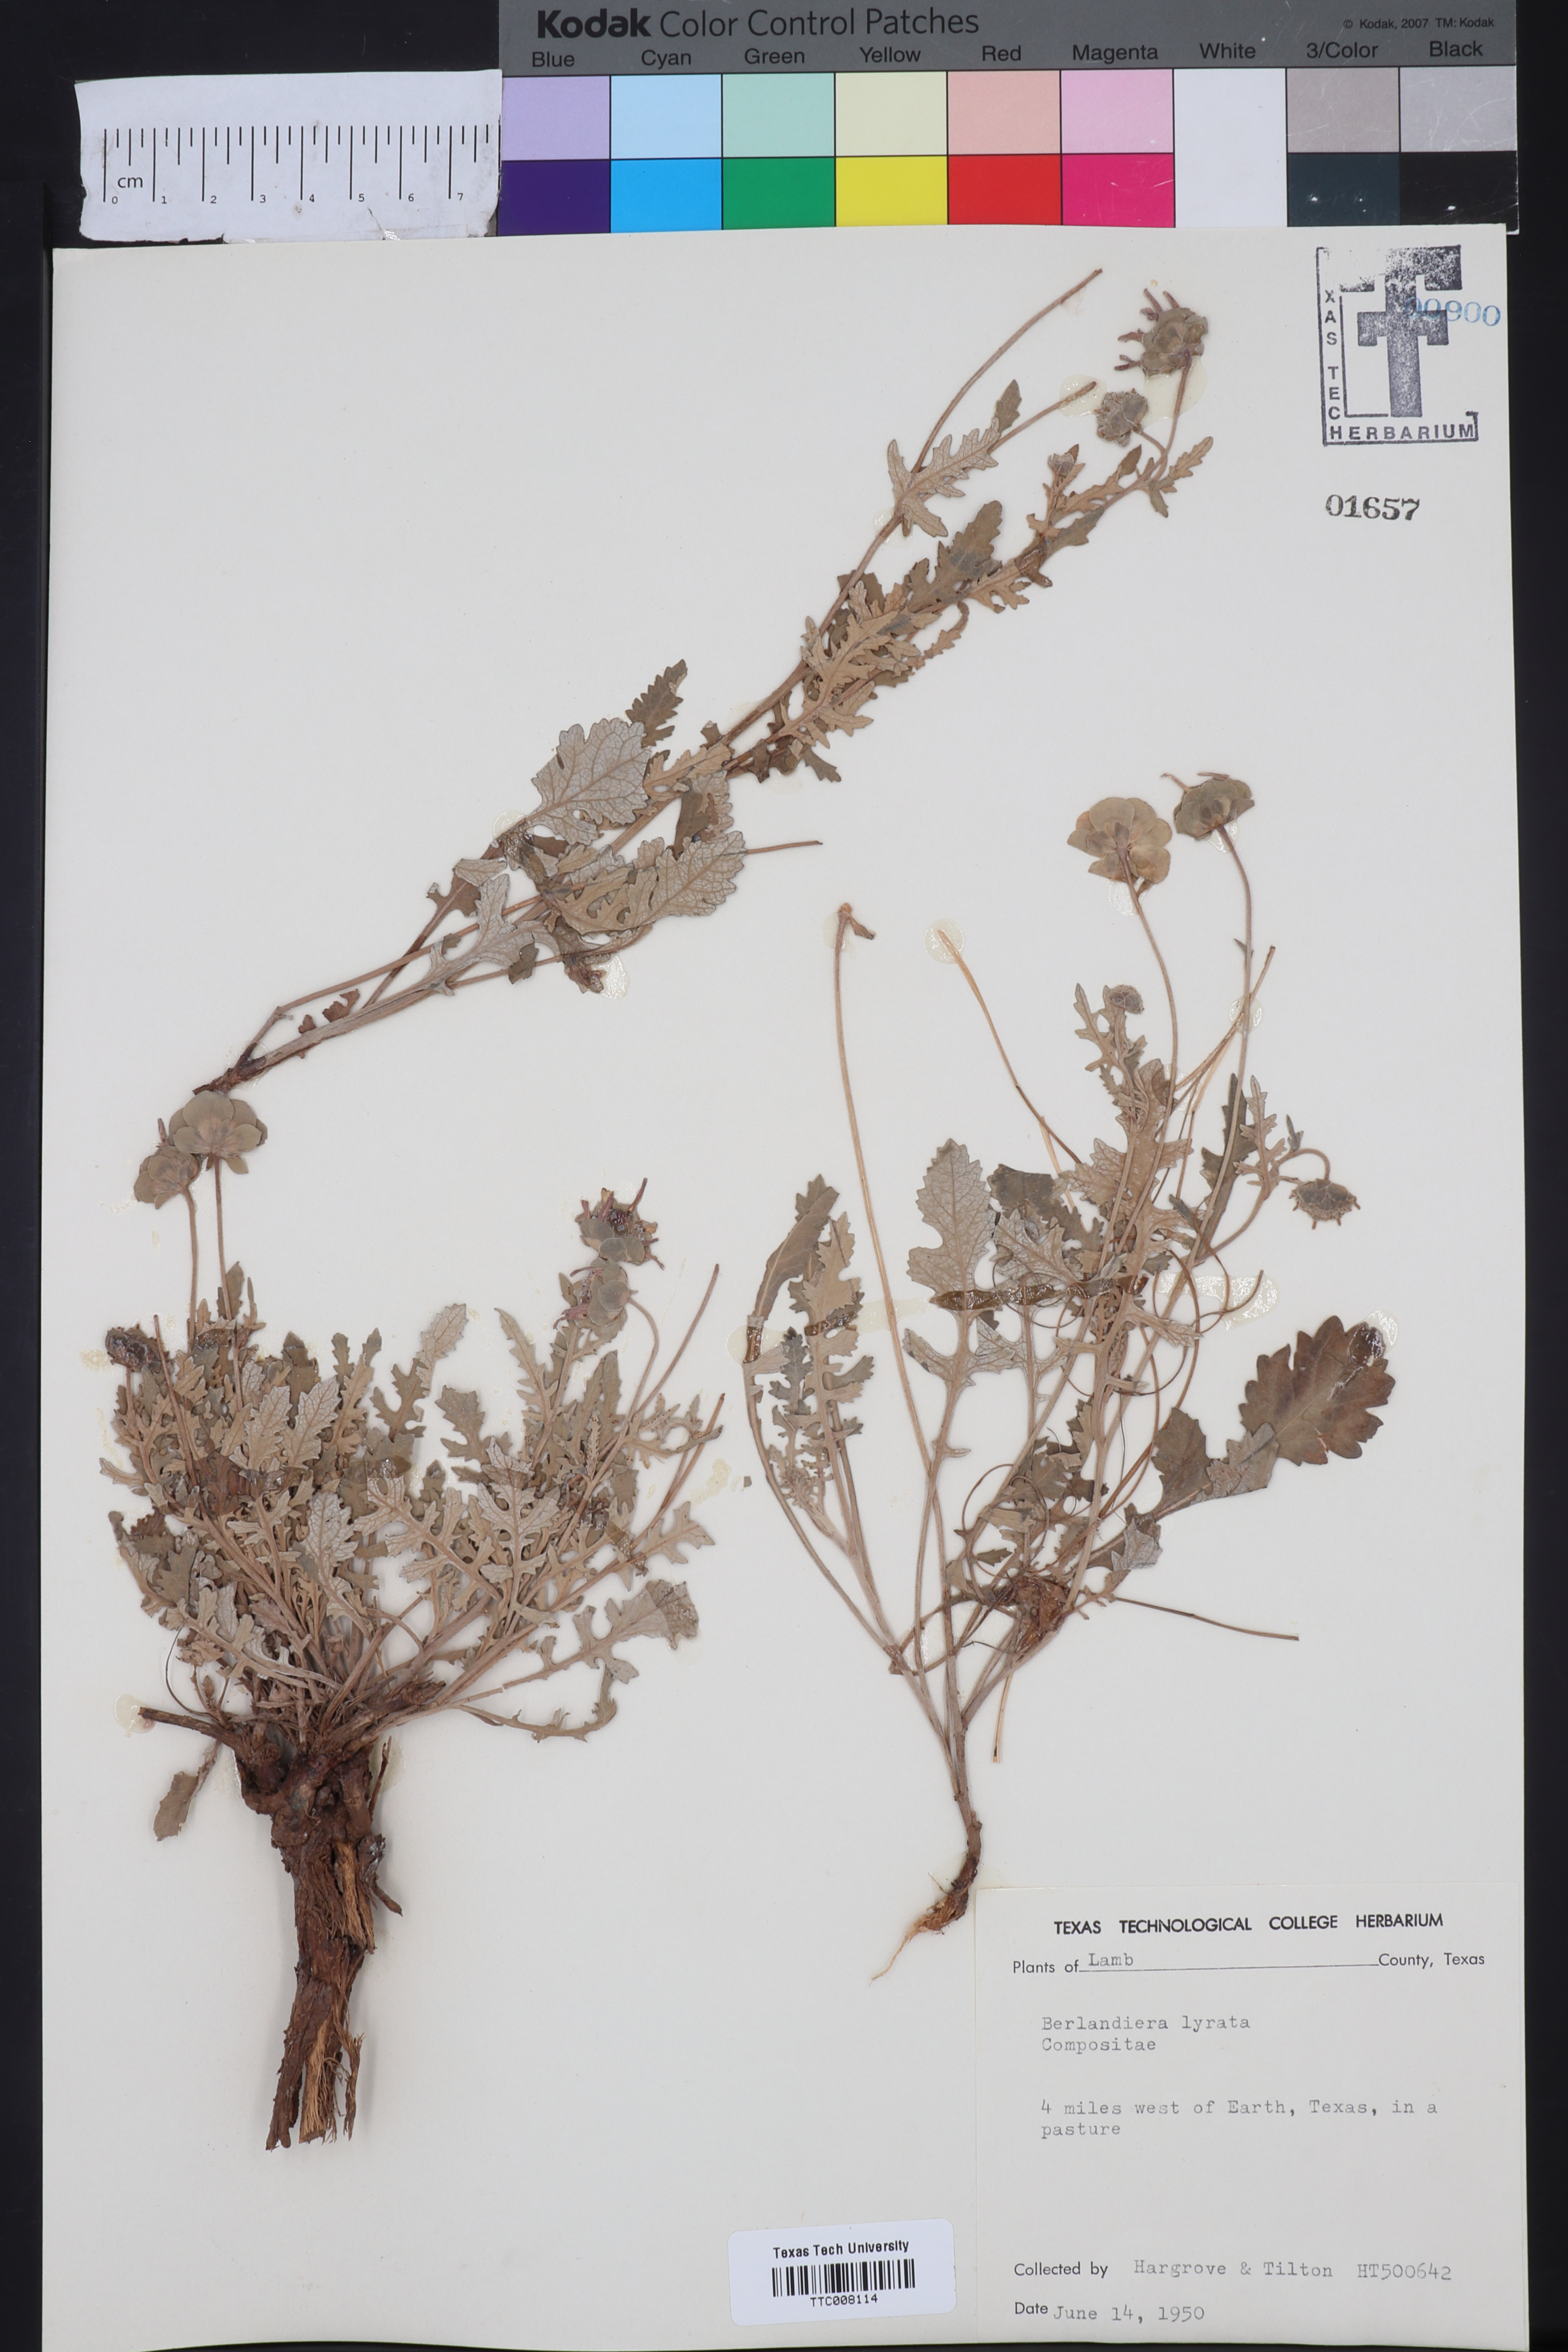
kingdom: Plantae
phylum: Tracheophyta
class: Magnoliopsida
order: Asterales
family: Asteraceae
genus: Berlandiera
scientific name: Berlandiera lyrata
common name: Chocolate-flower
